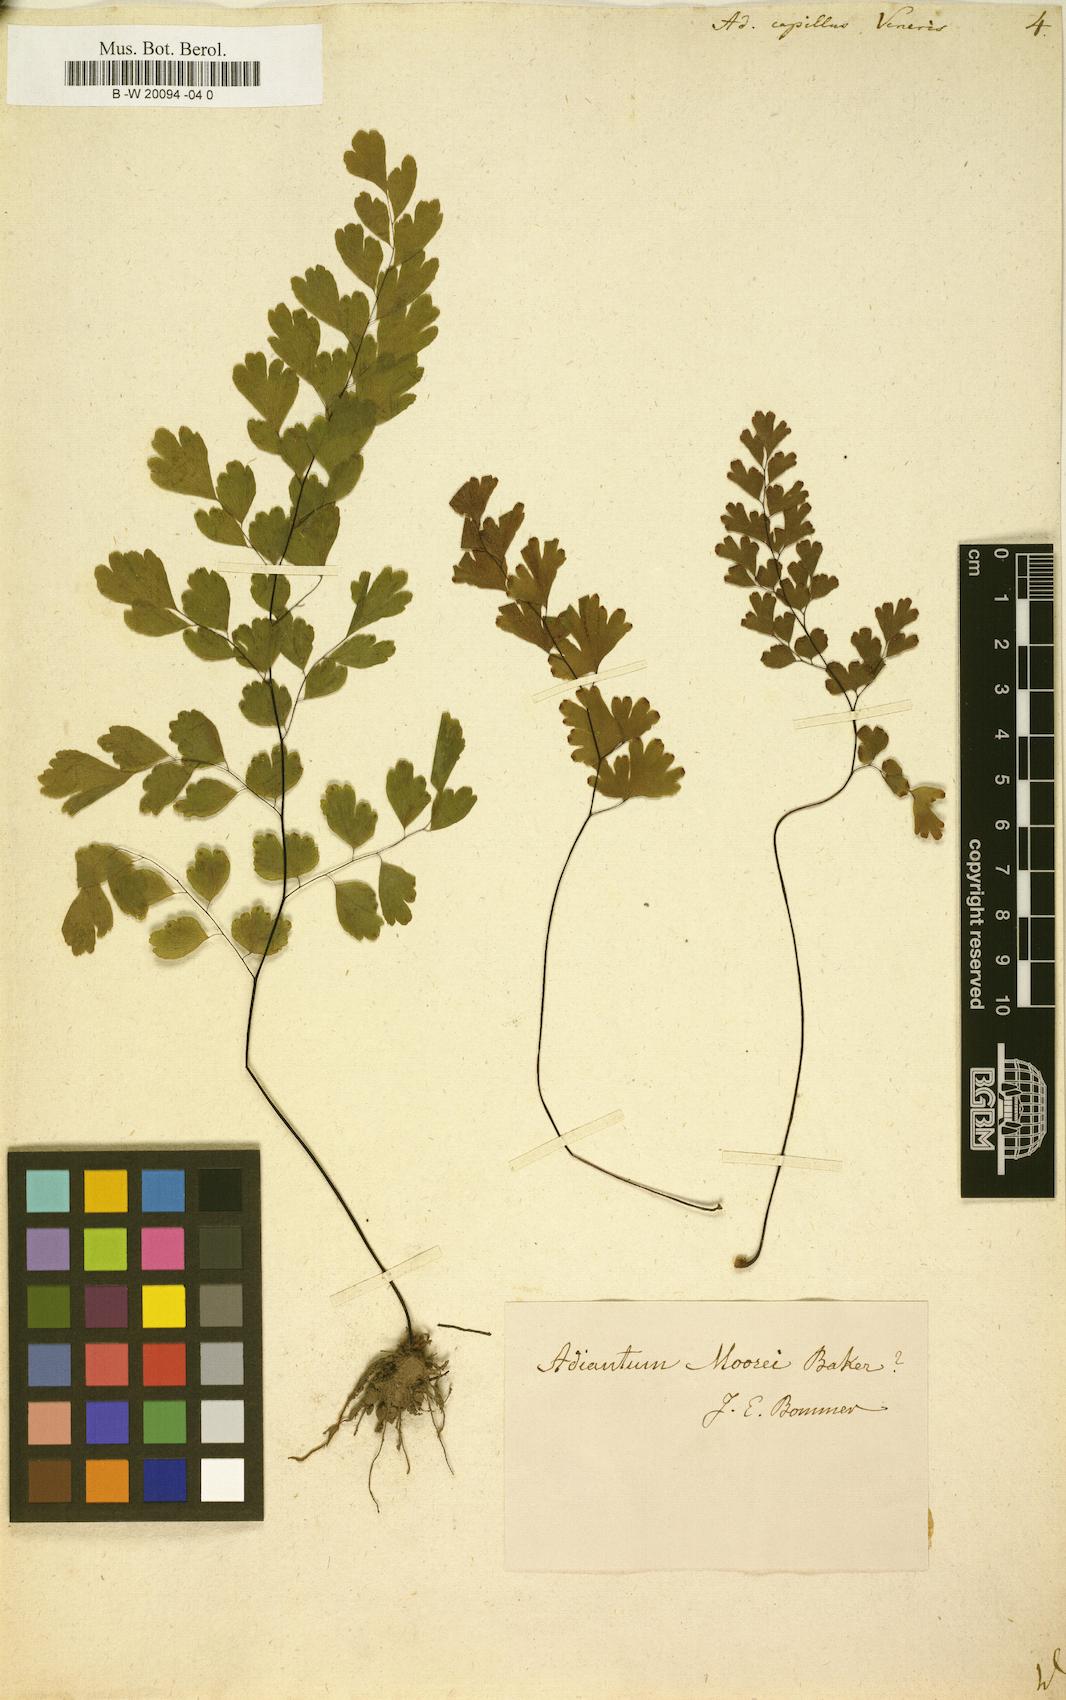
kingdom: Plantae
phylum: Tracheophyta
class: Polypodiopsida
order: Polypodiales
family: Pteridaceae
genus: Adiantum
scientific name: Adiantum capillus-veneris
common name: Maidenhair fern
